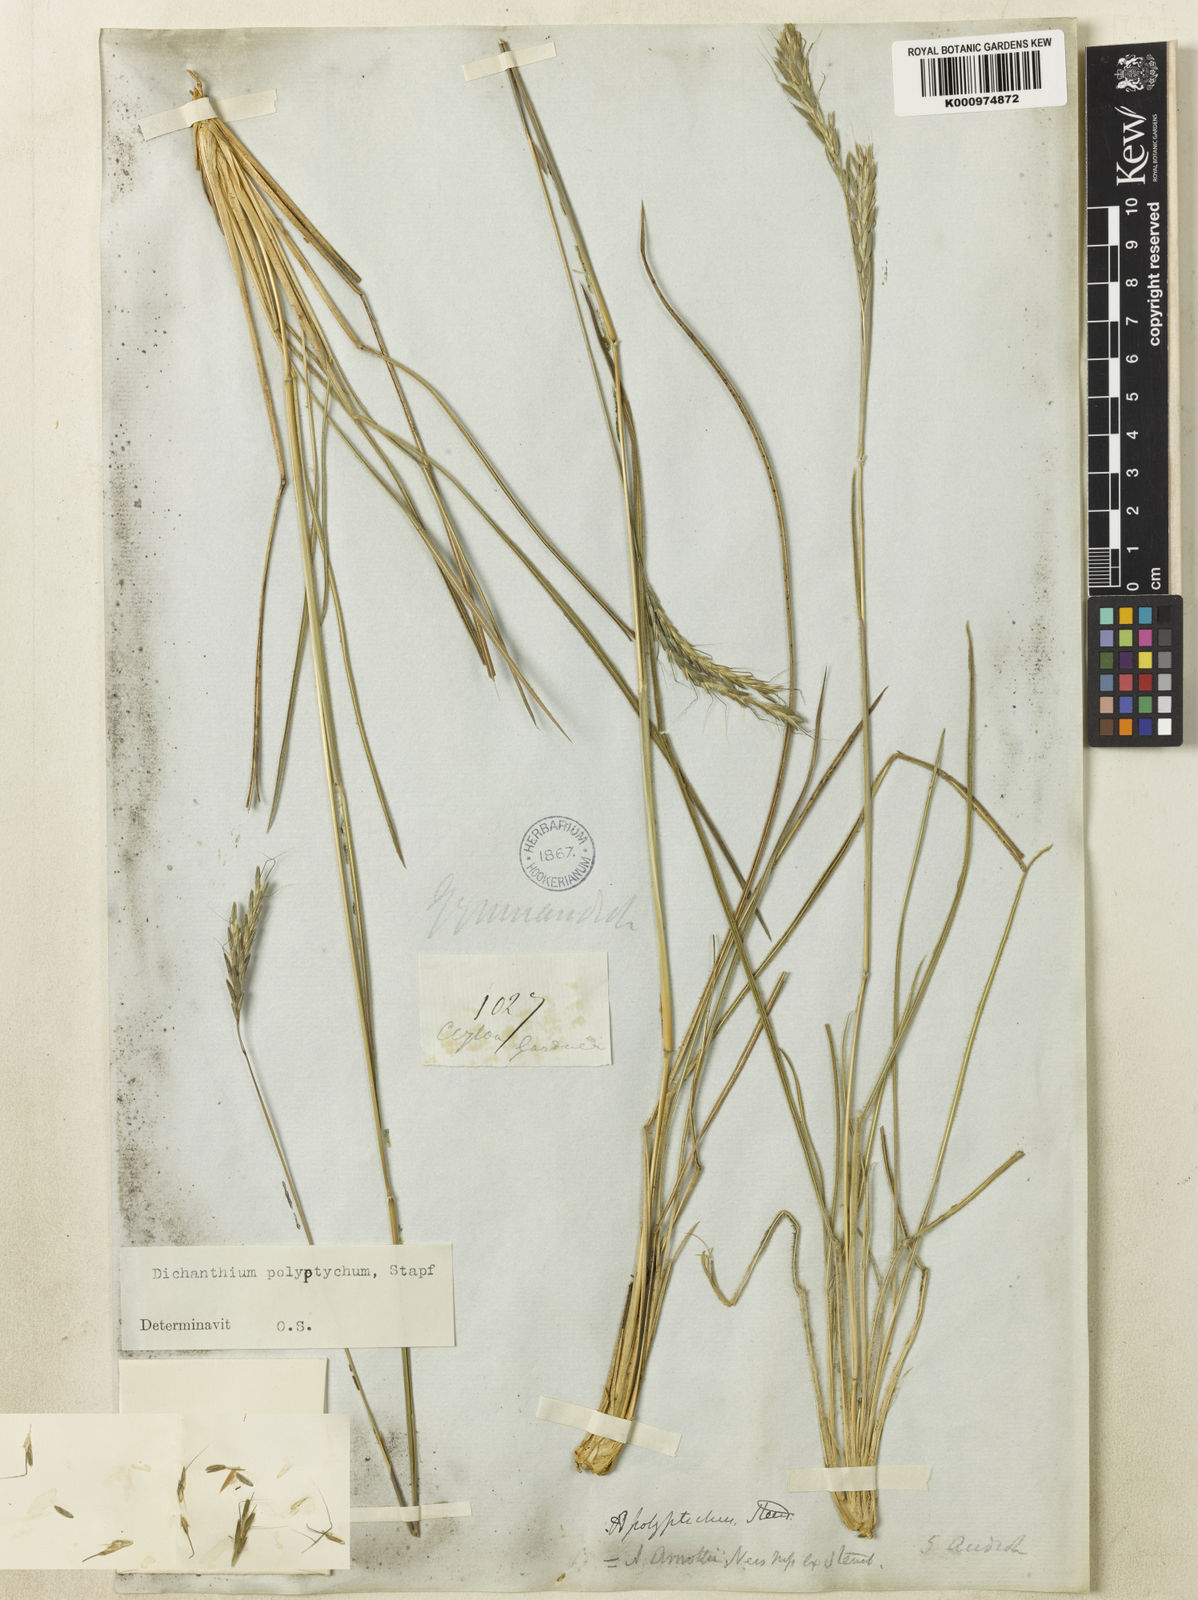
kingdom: Plantae
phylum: Tracheophyta
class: Liliopsida
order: Poales
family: Poaceae
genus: Andropogon
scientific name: Andropogon polyptychos
